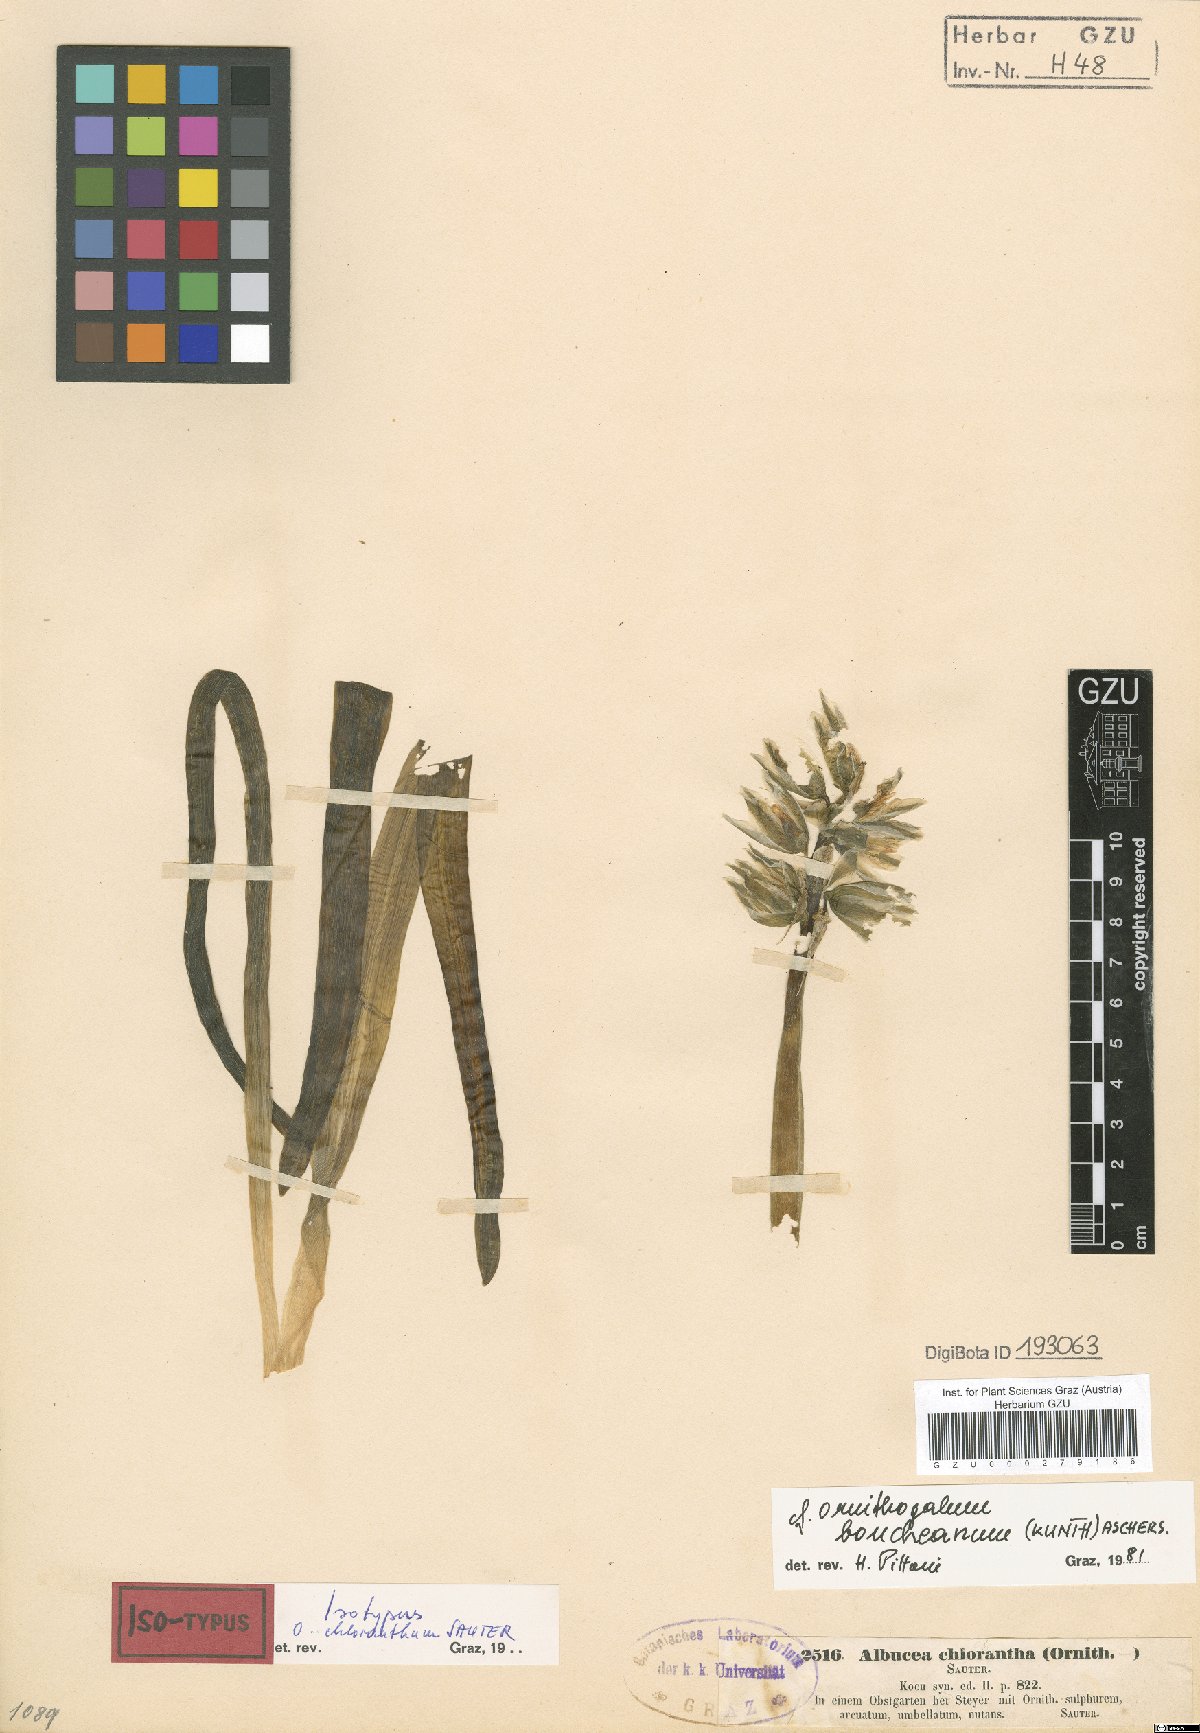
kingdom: Plantae
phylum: Tracheophyta
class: Liliopsida
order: Asparagales
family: Asparagaceae
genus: Ornithogalum
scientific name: Ornithogalum nutans
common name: Drooping star-of-bethlehem
